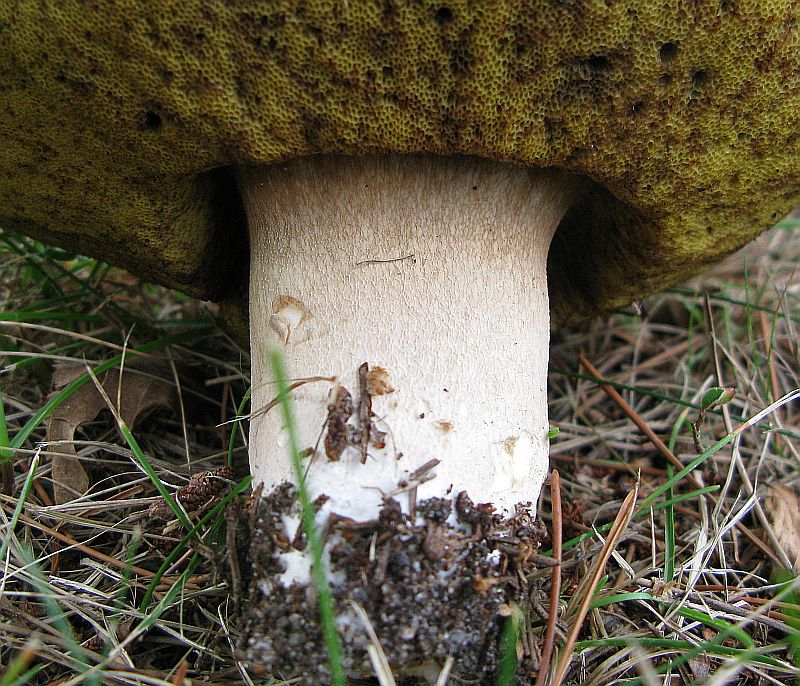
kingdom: Fungi
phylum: Basidiomycota
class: Agaricomycetes
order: Boletales
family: Boletaceae
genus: Boletus
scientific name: Boletus edulis
